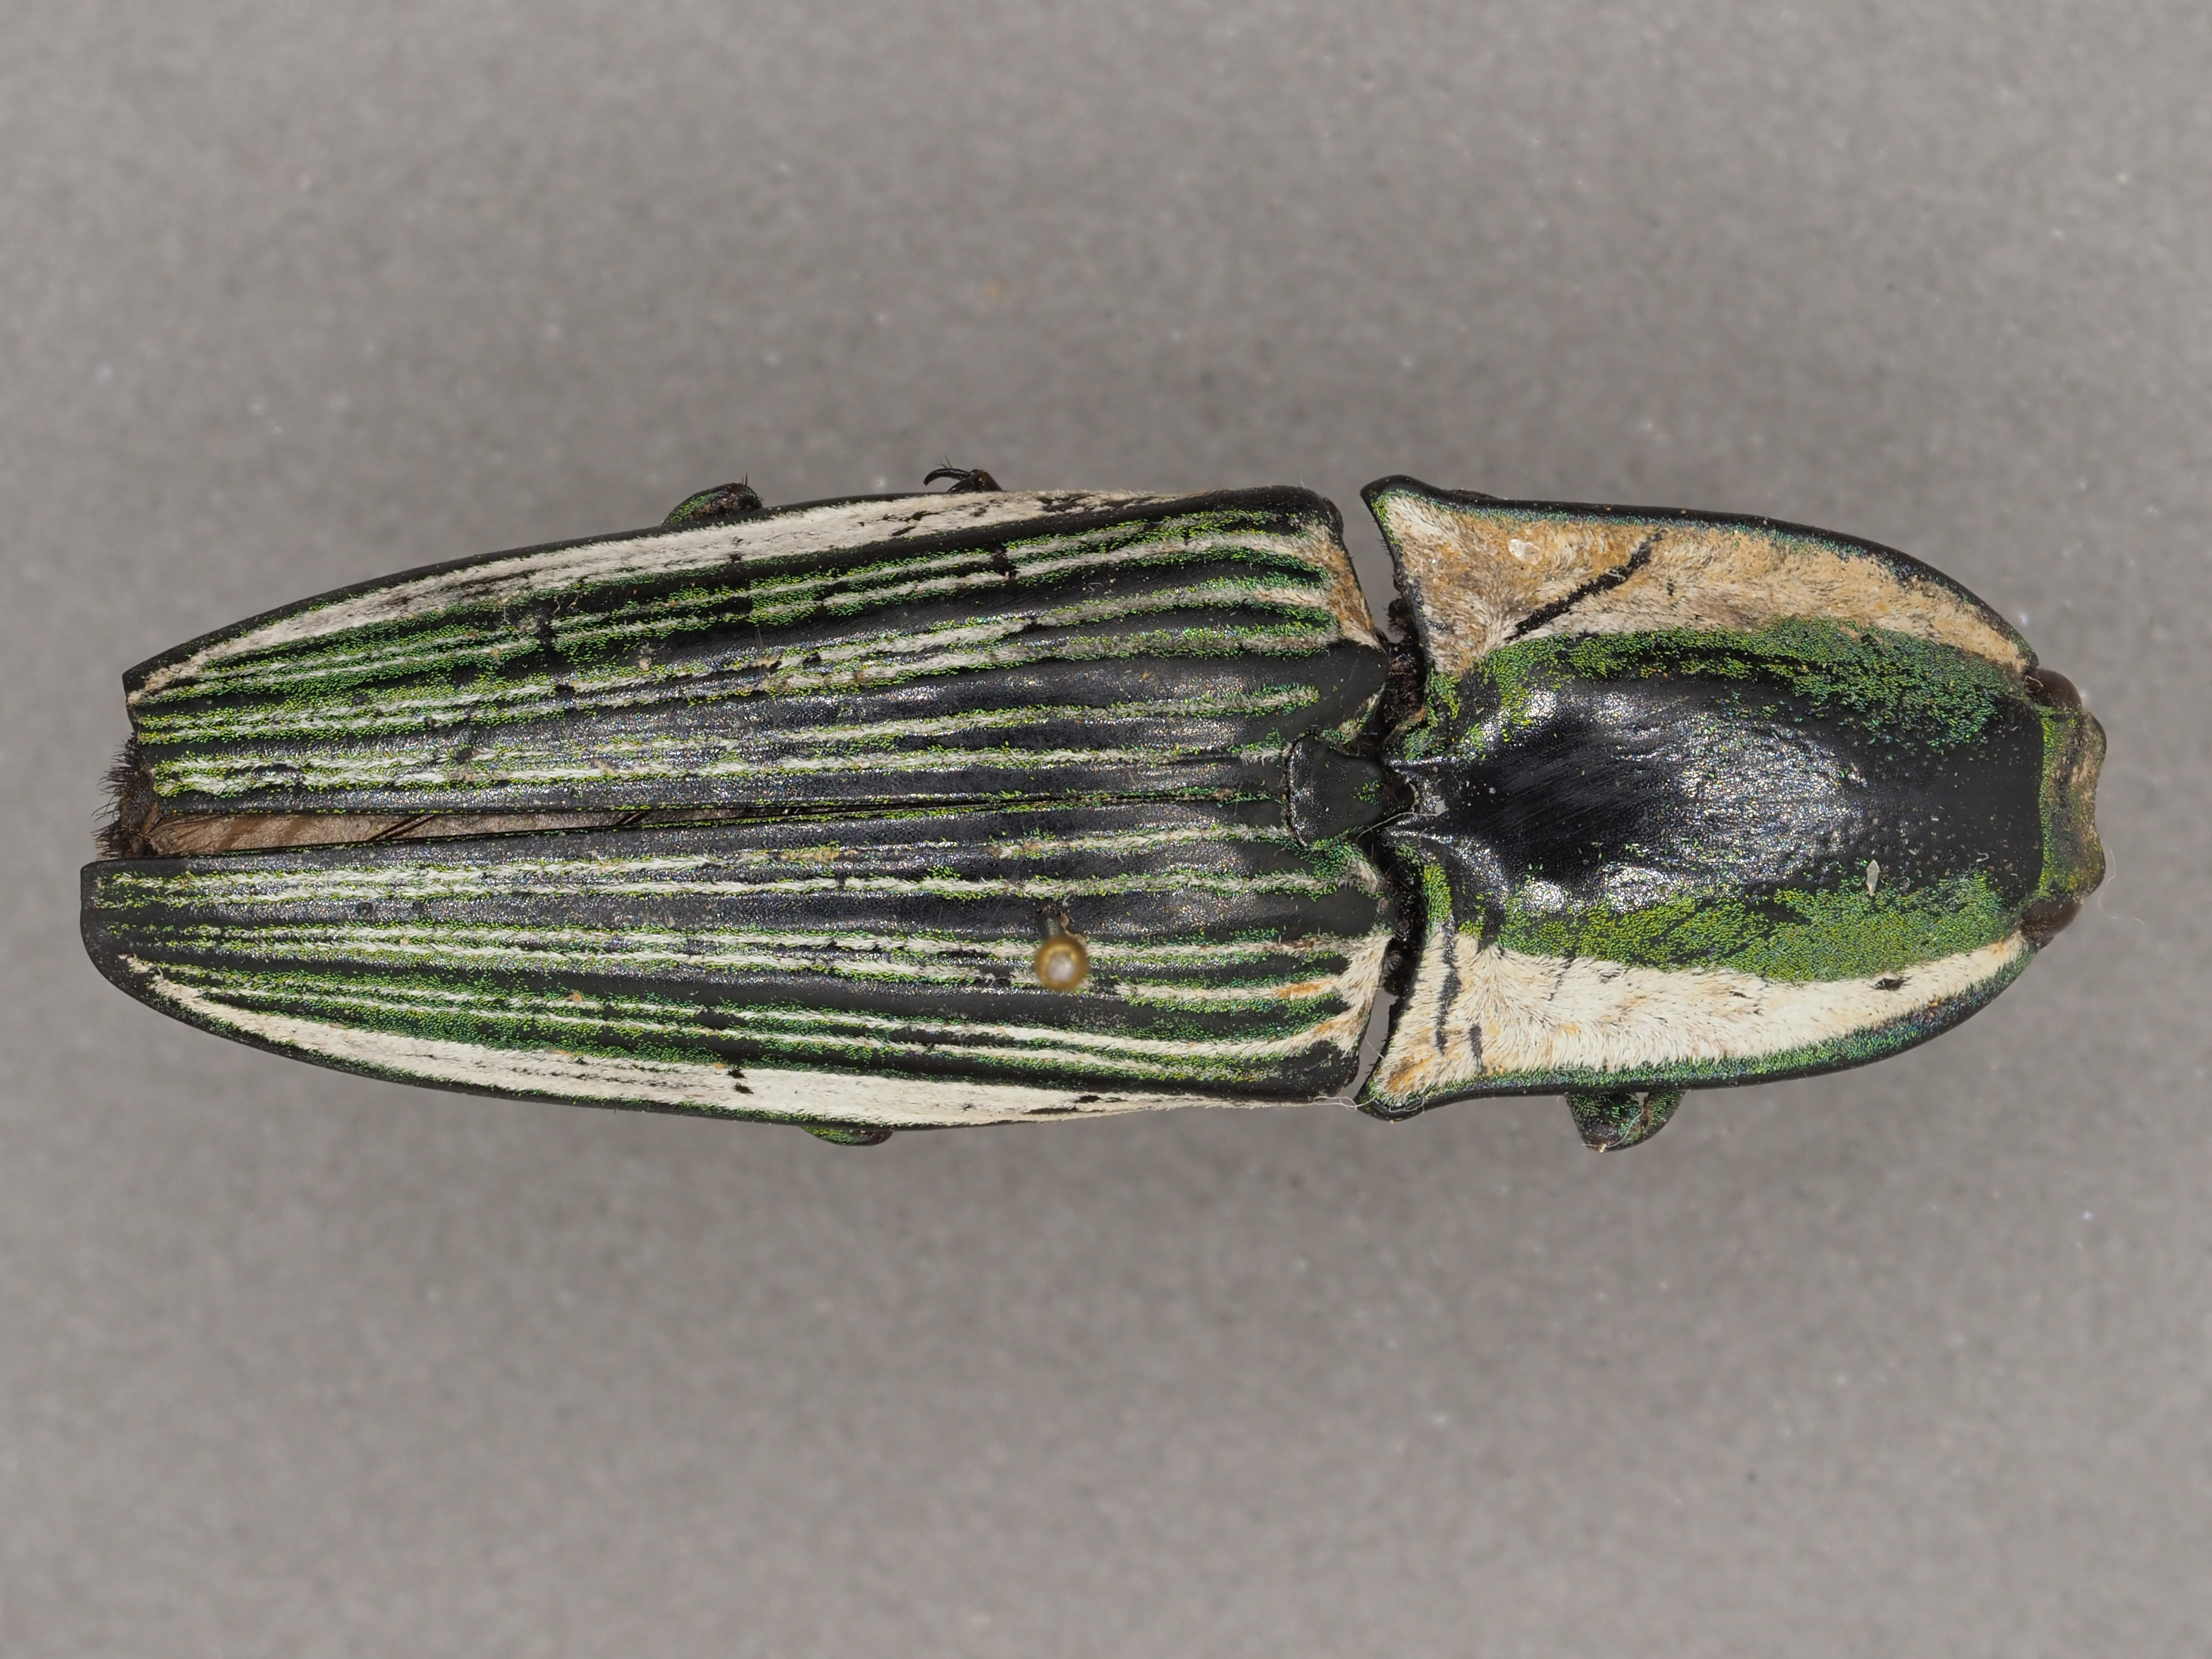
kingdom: Animalia
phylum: Arthropoda
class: Insecta
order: Coleoptera
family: Elateridae
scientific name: Elateridae
